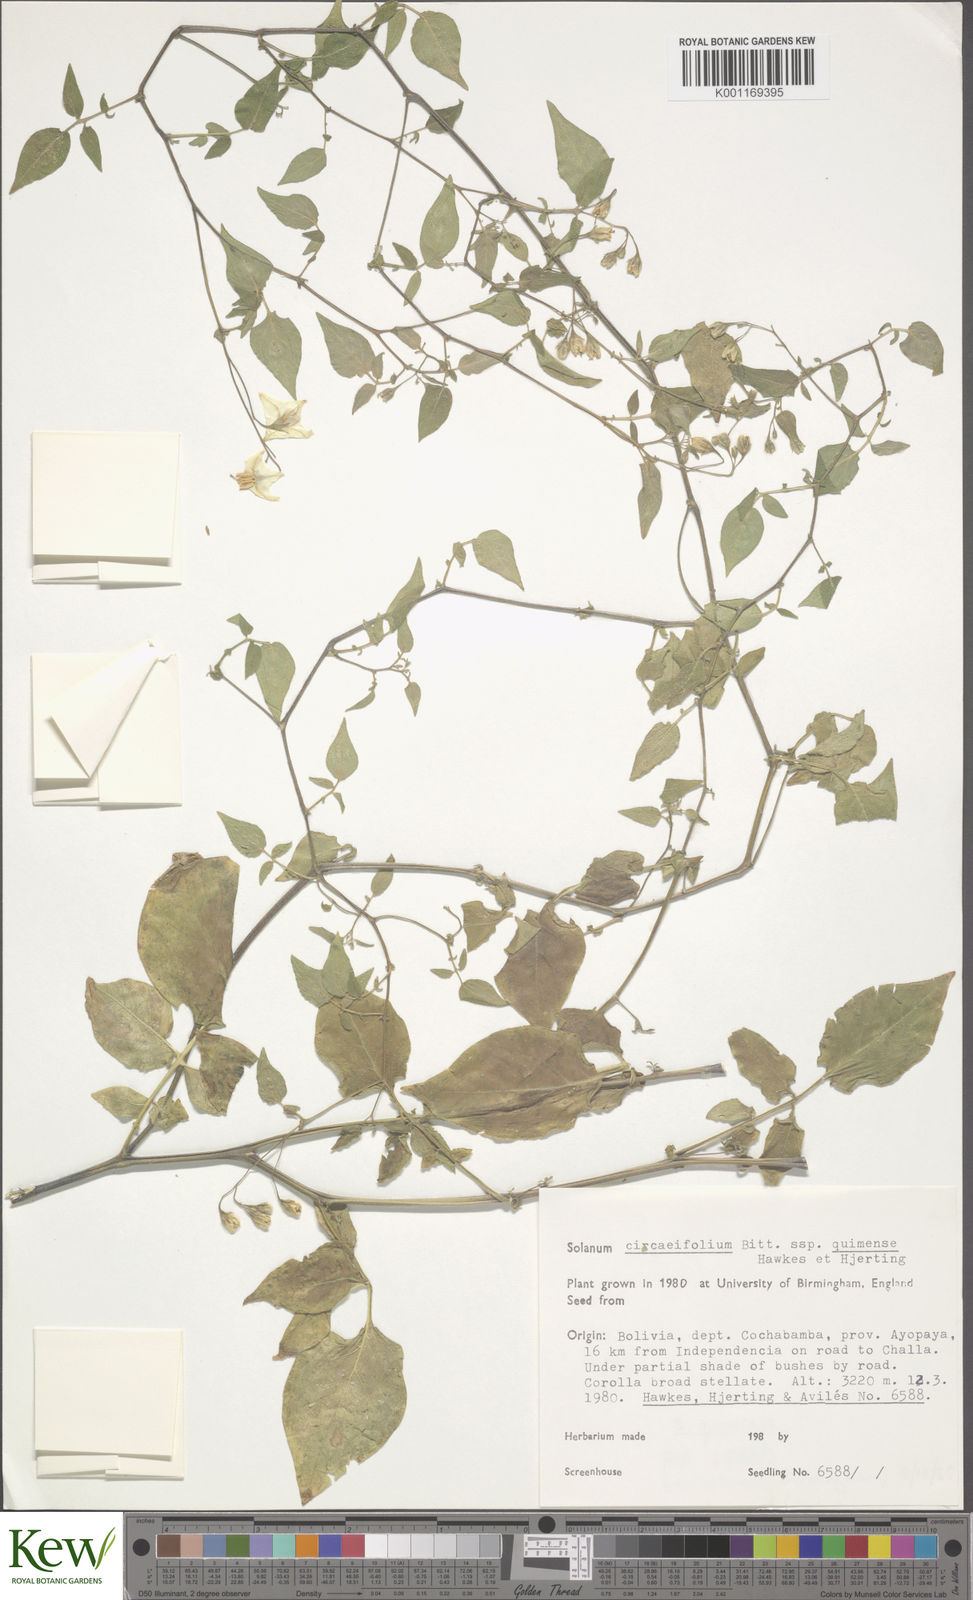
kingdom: Plantae
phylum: Tracheophyta
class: Magnoliopsida
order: Solanales
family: Solanaceae
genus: Solanum
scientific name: Solanum stipuloideum
